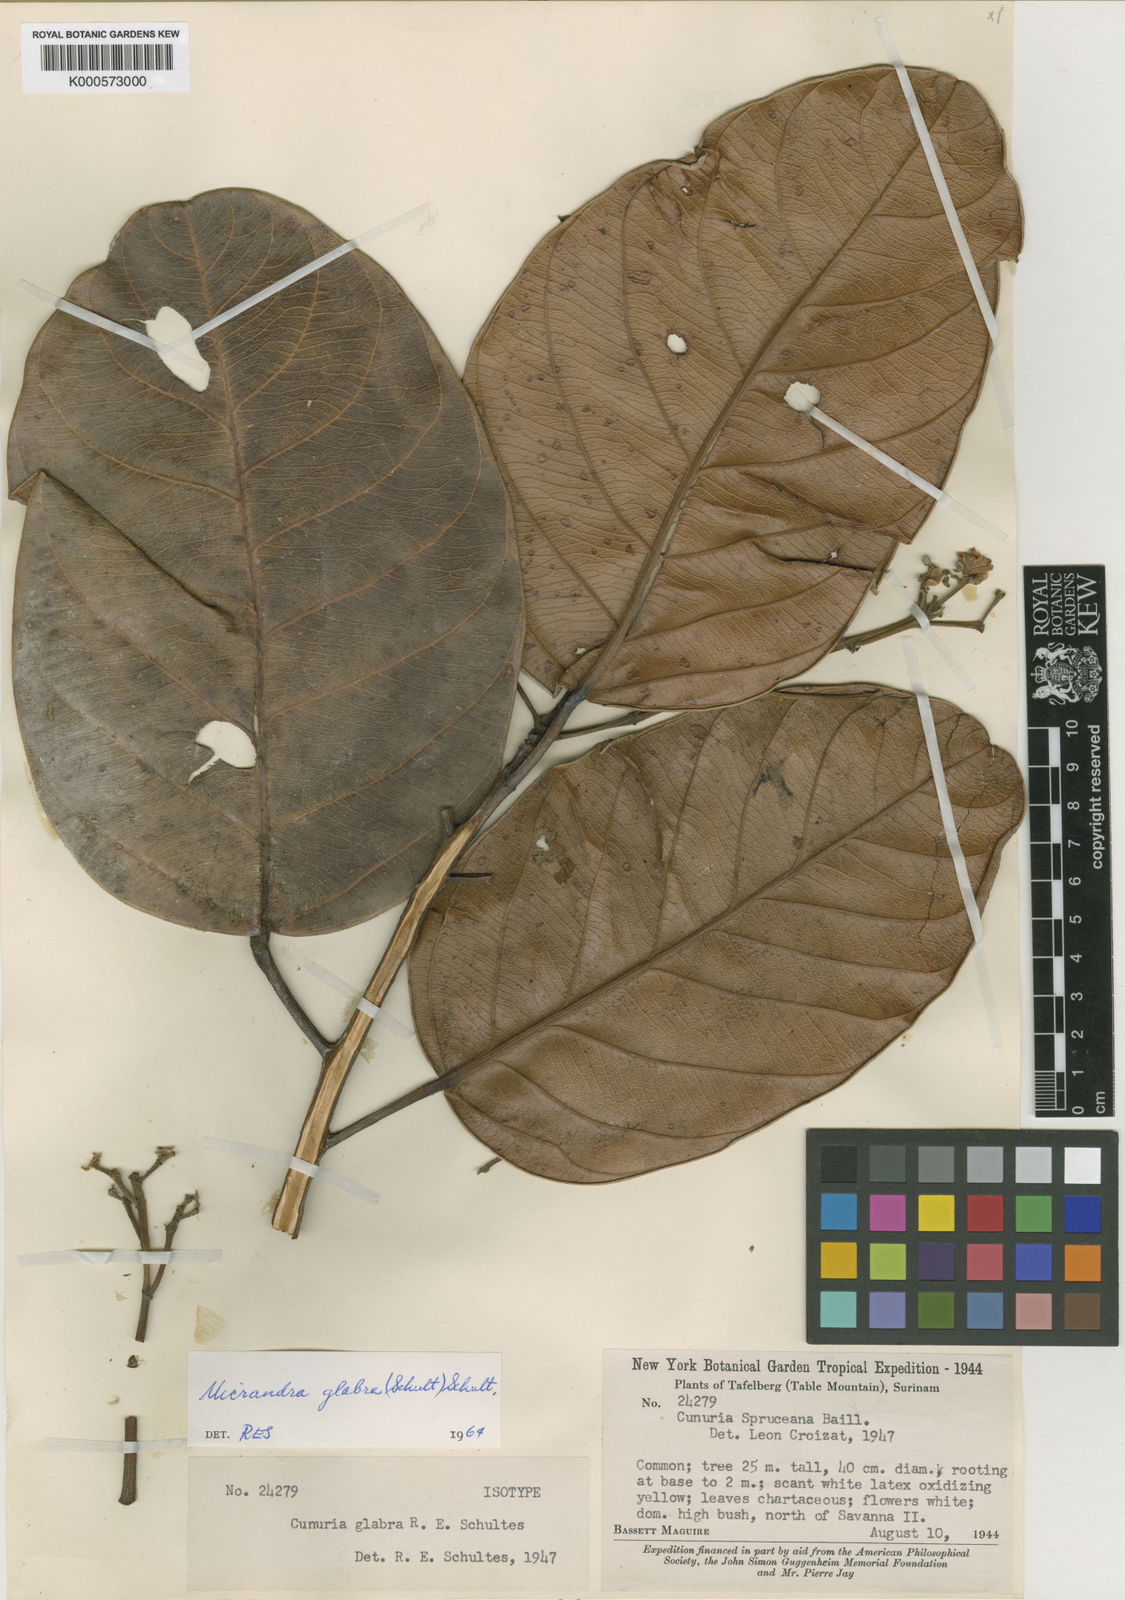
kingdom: Plantae
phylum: Tracheophyta
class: Magnoliopsida
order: Malpighiales
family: Euphorbiaceae
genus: Micrandra
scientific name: Micrandra spruceana
